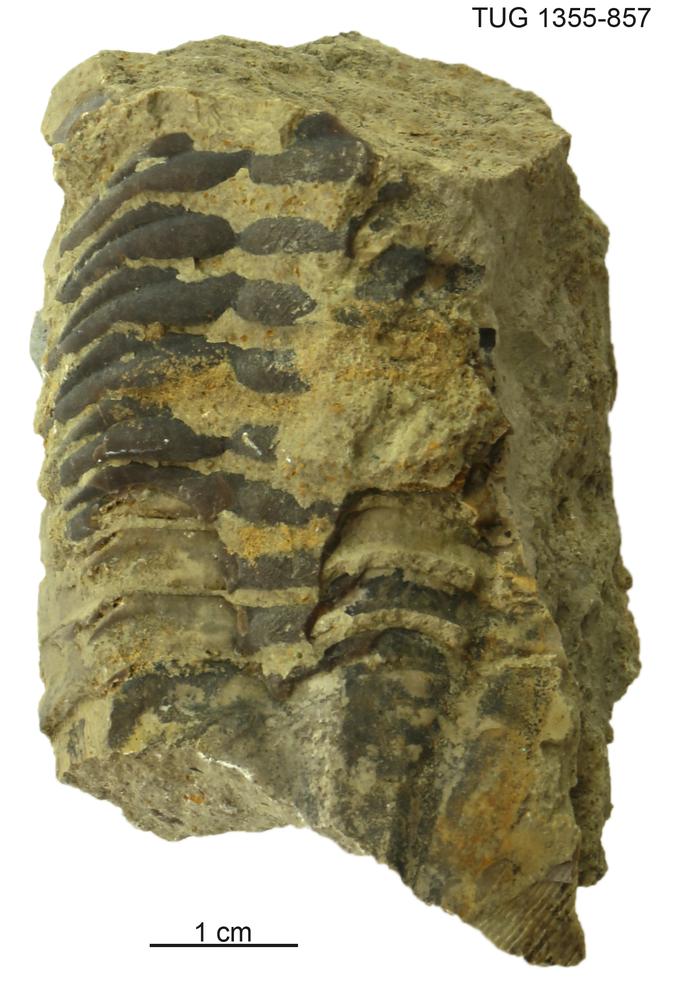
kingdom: Animalia
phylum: Arthropoda
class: Trilobita
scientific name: Trilobita
